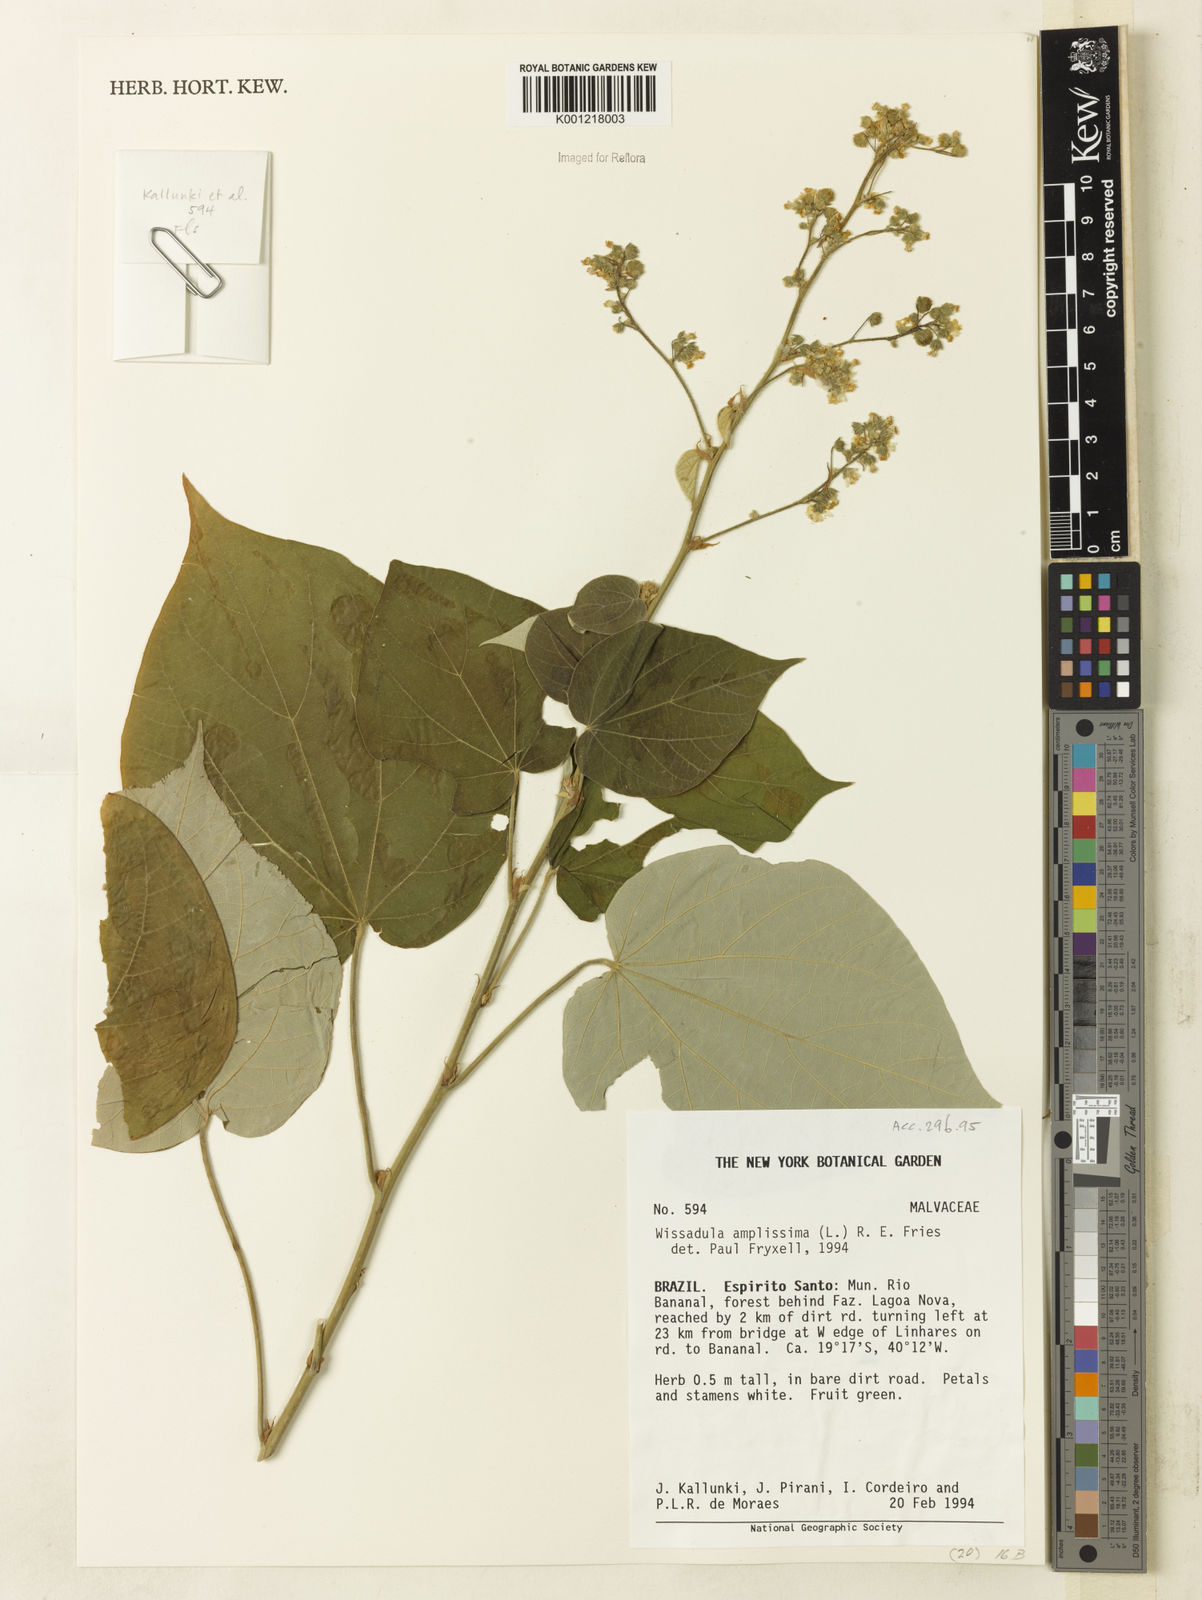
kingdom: Plantae
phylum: Tracheophyta
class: Magnoliopsida
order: Malvales
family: Malvaceae
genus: Wissadula
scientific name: Wissadula amplissima
